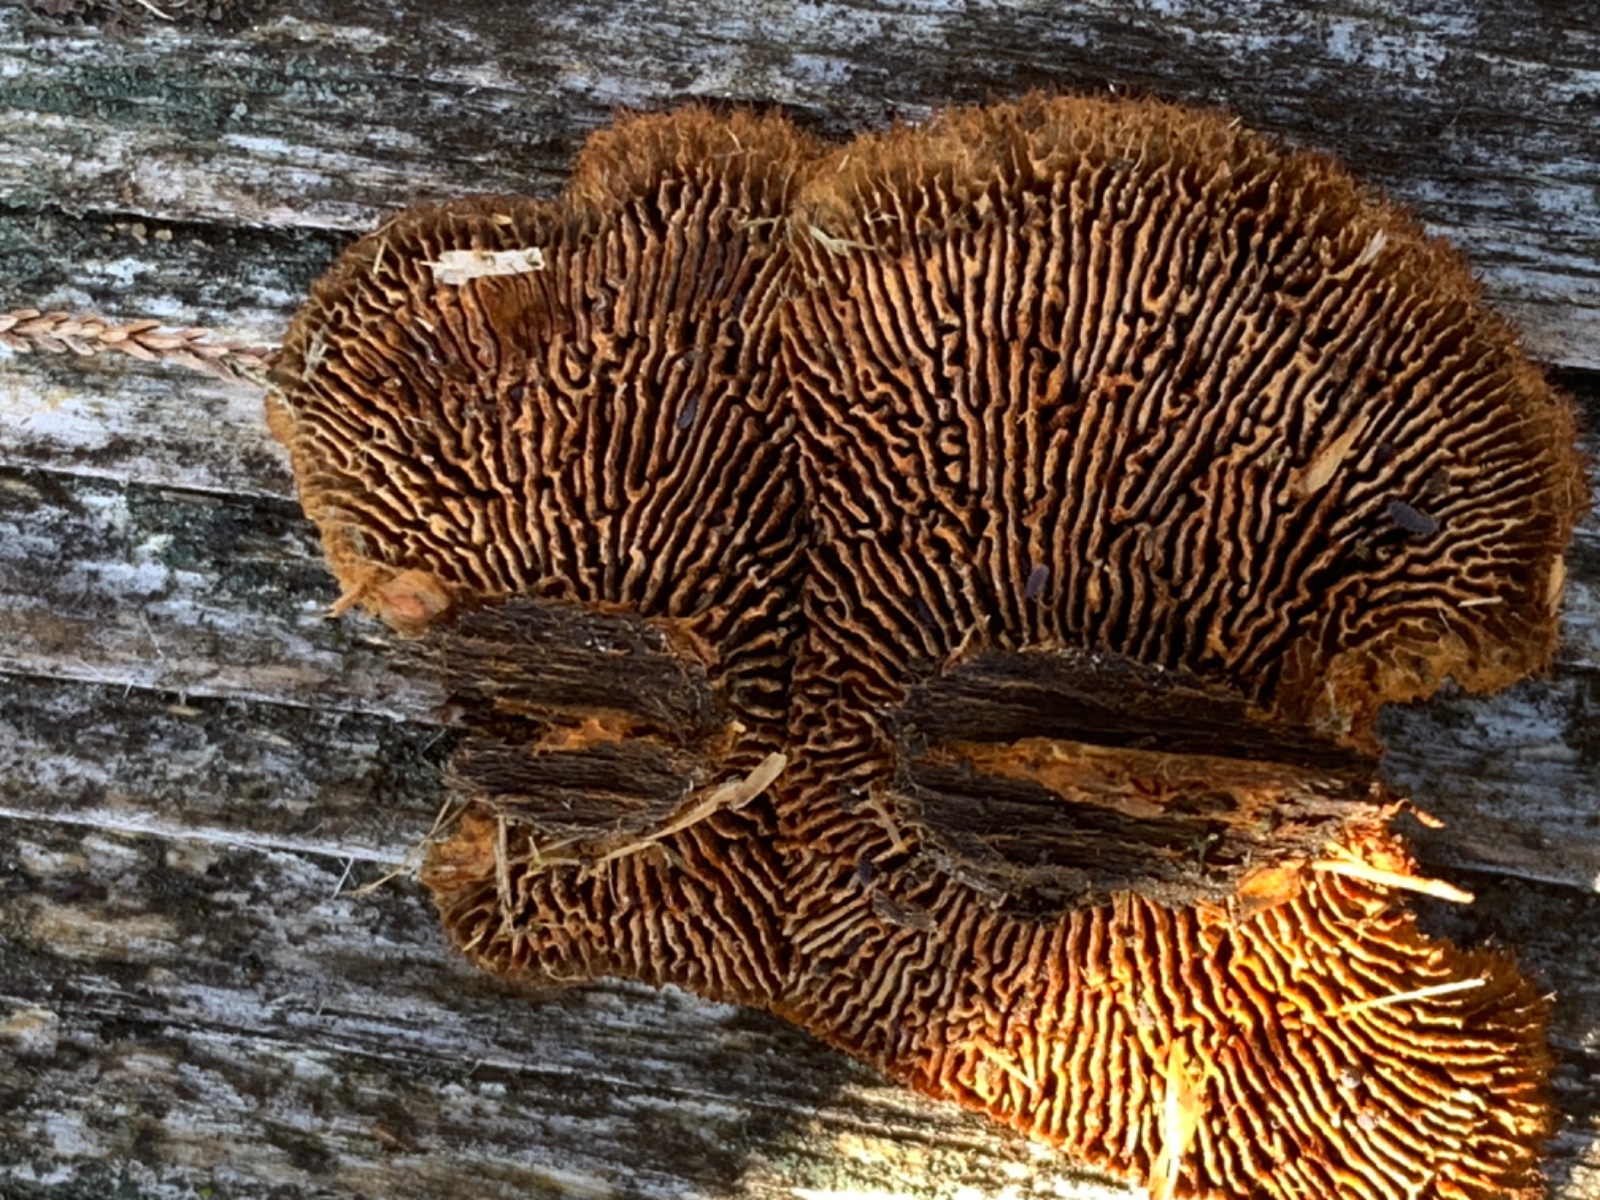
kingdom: Fungi
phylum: Basidiomycota
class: Agaricomycetes
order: Gloeophyllales
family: Gloeophyllaceae
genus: Gloeophyllum
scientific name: Gloeophyllum sepiarium
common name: fyrre-korkhat
